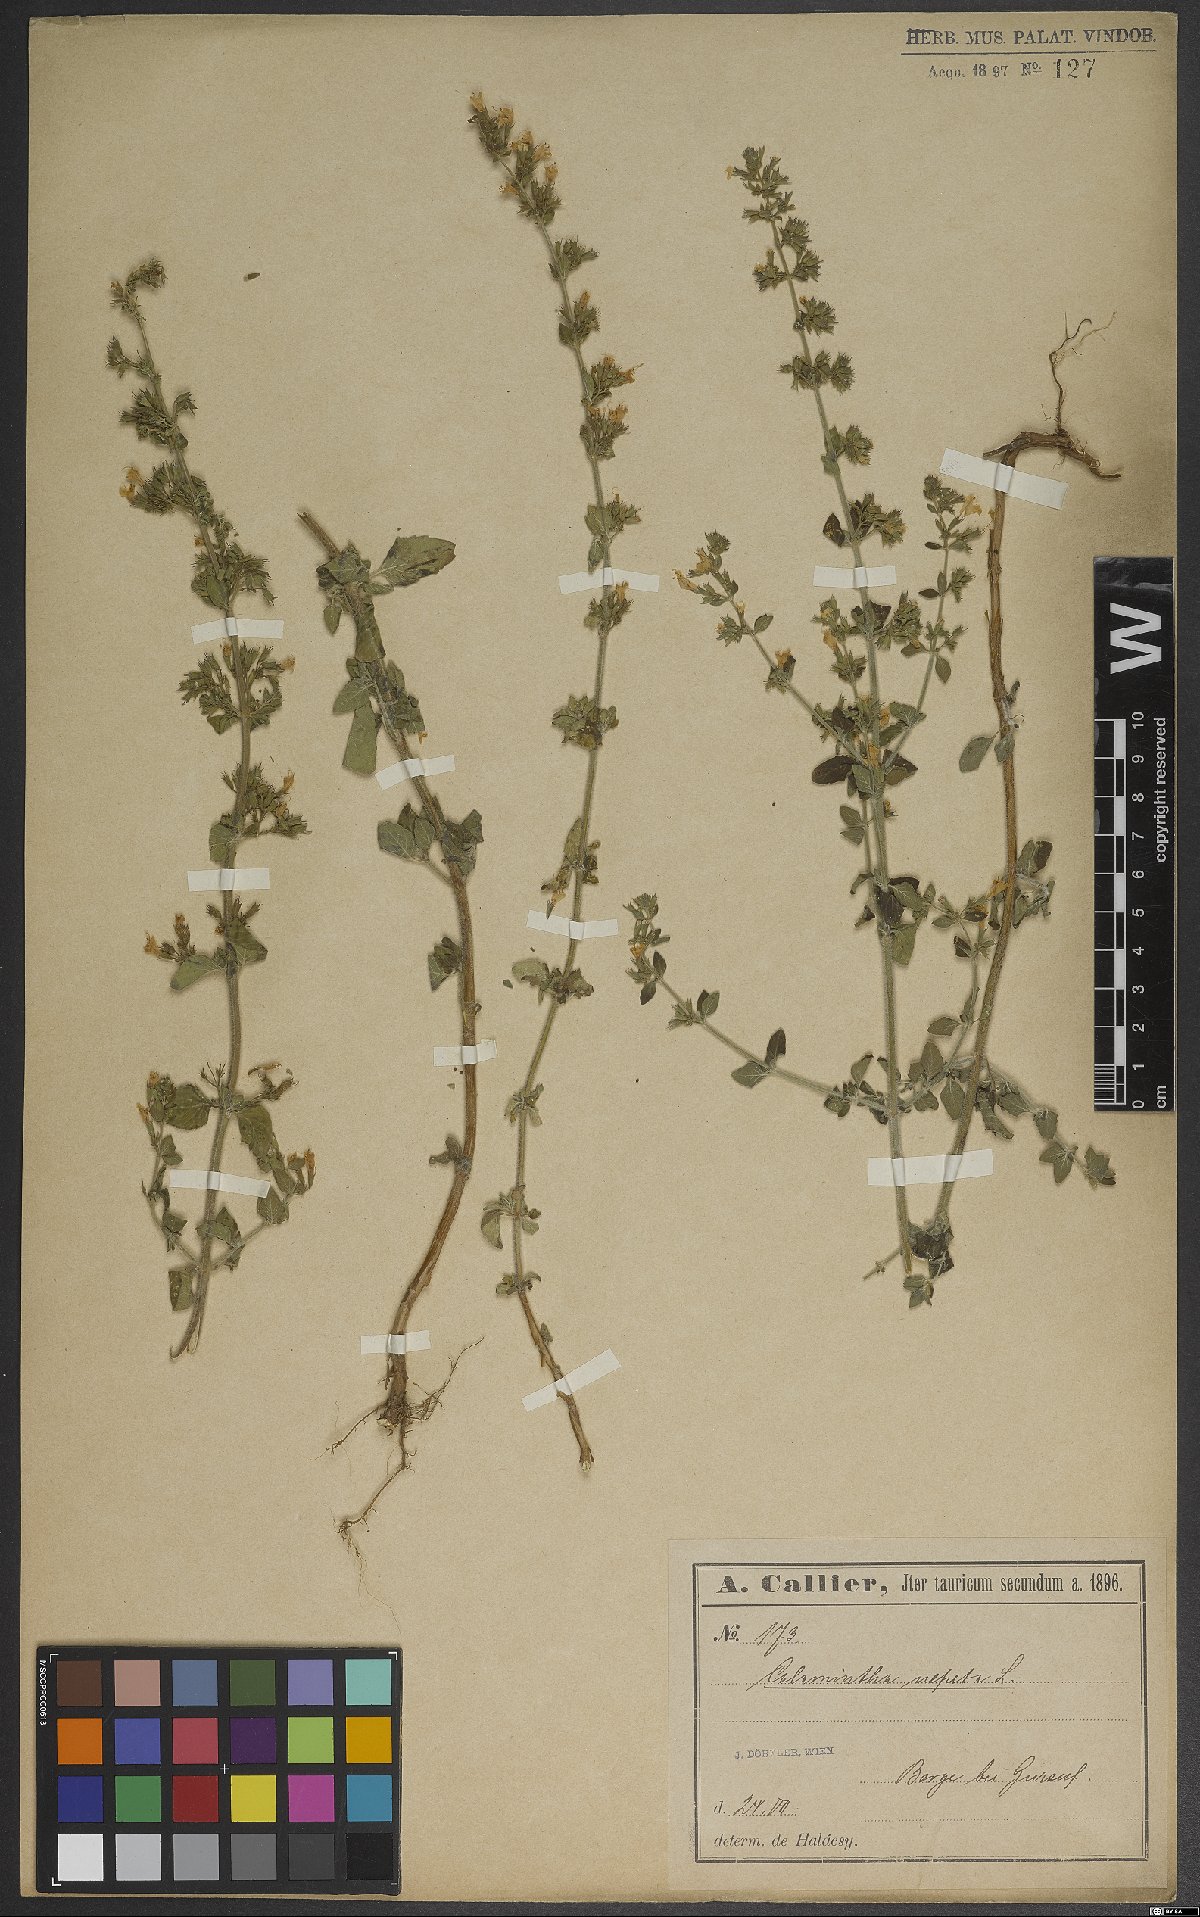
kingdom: Plantae
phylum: Tracheophyta
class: Magnoliopsida
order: Lamiales
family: Lamiaceae
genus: Clinopodium
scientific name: Clinopodium nepeta
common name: Lesser calamint
